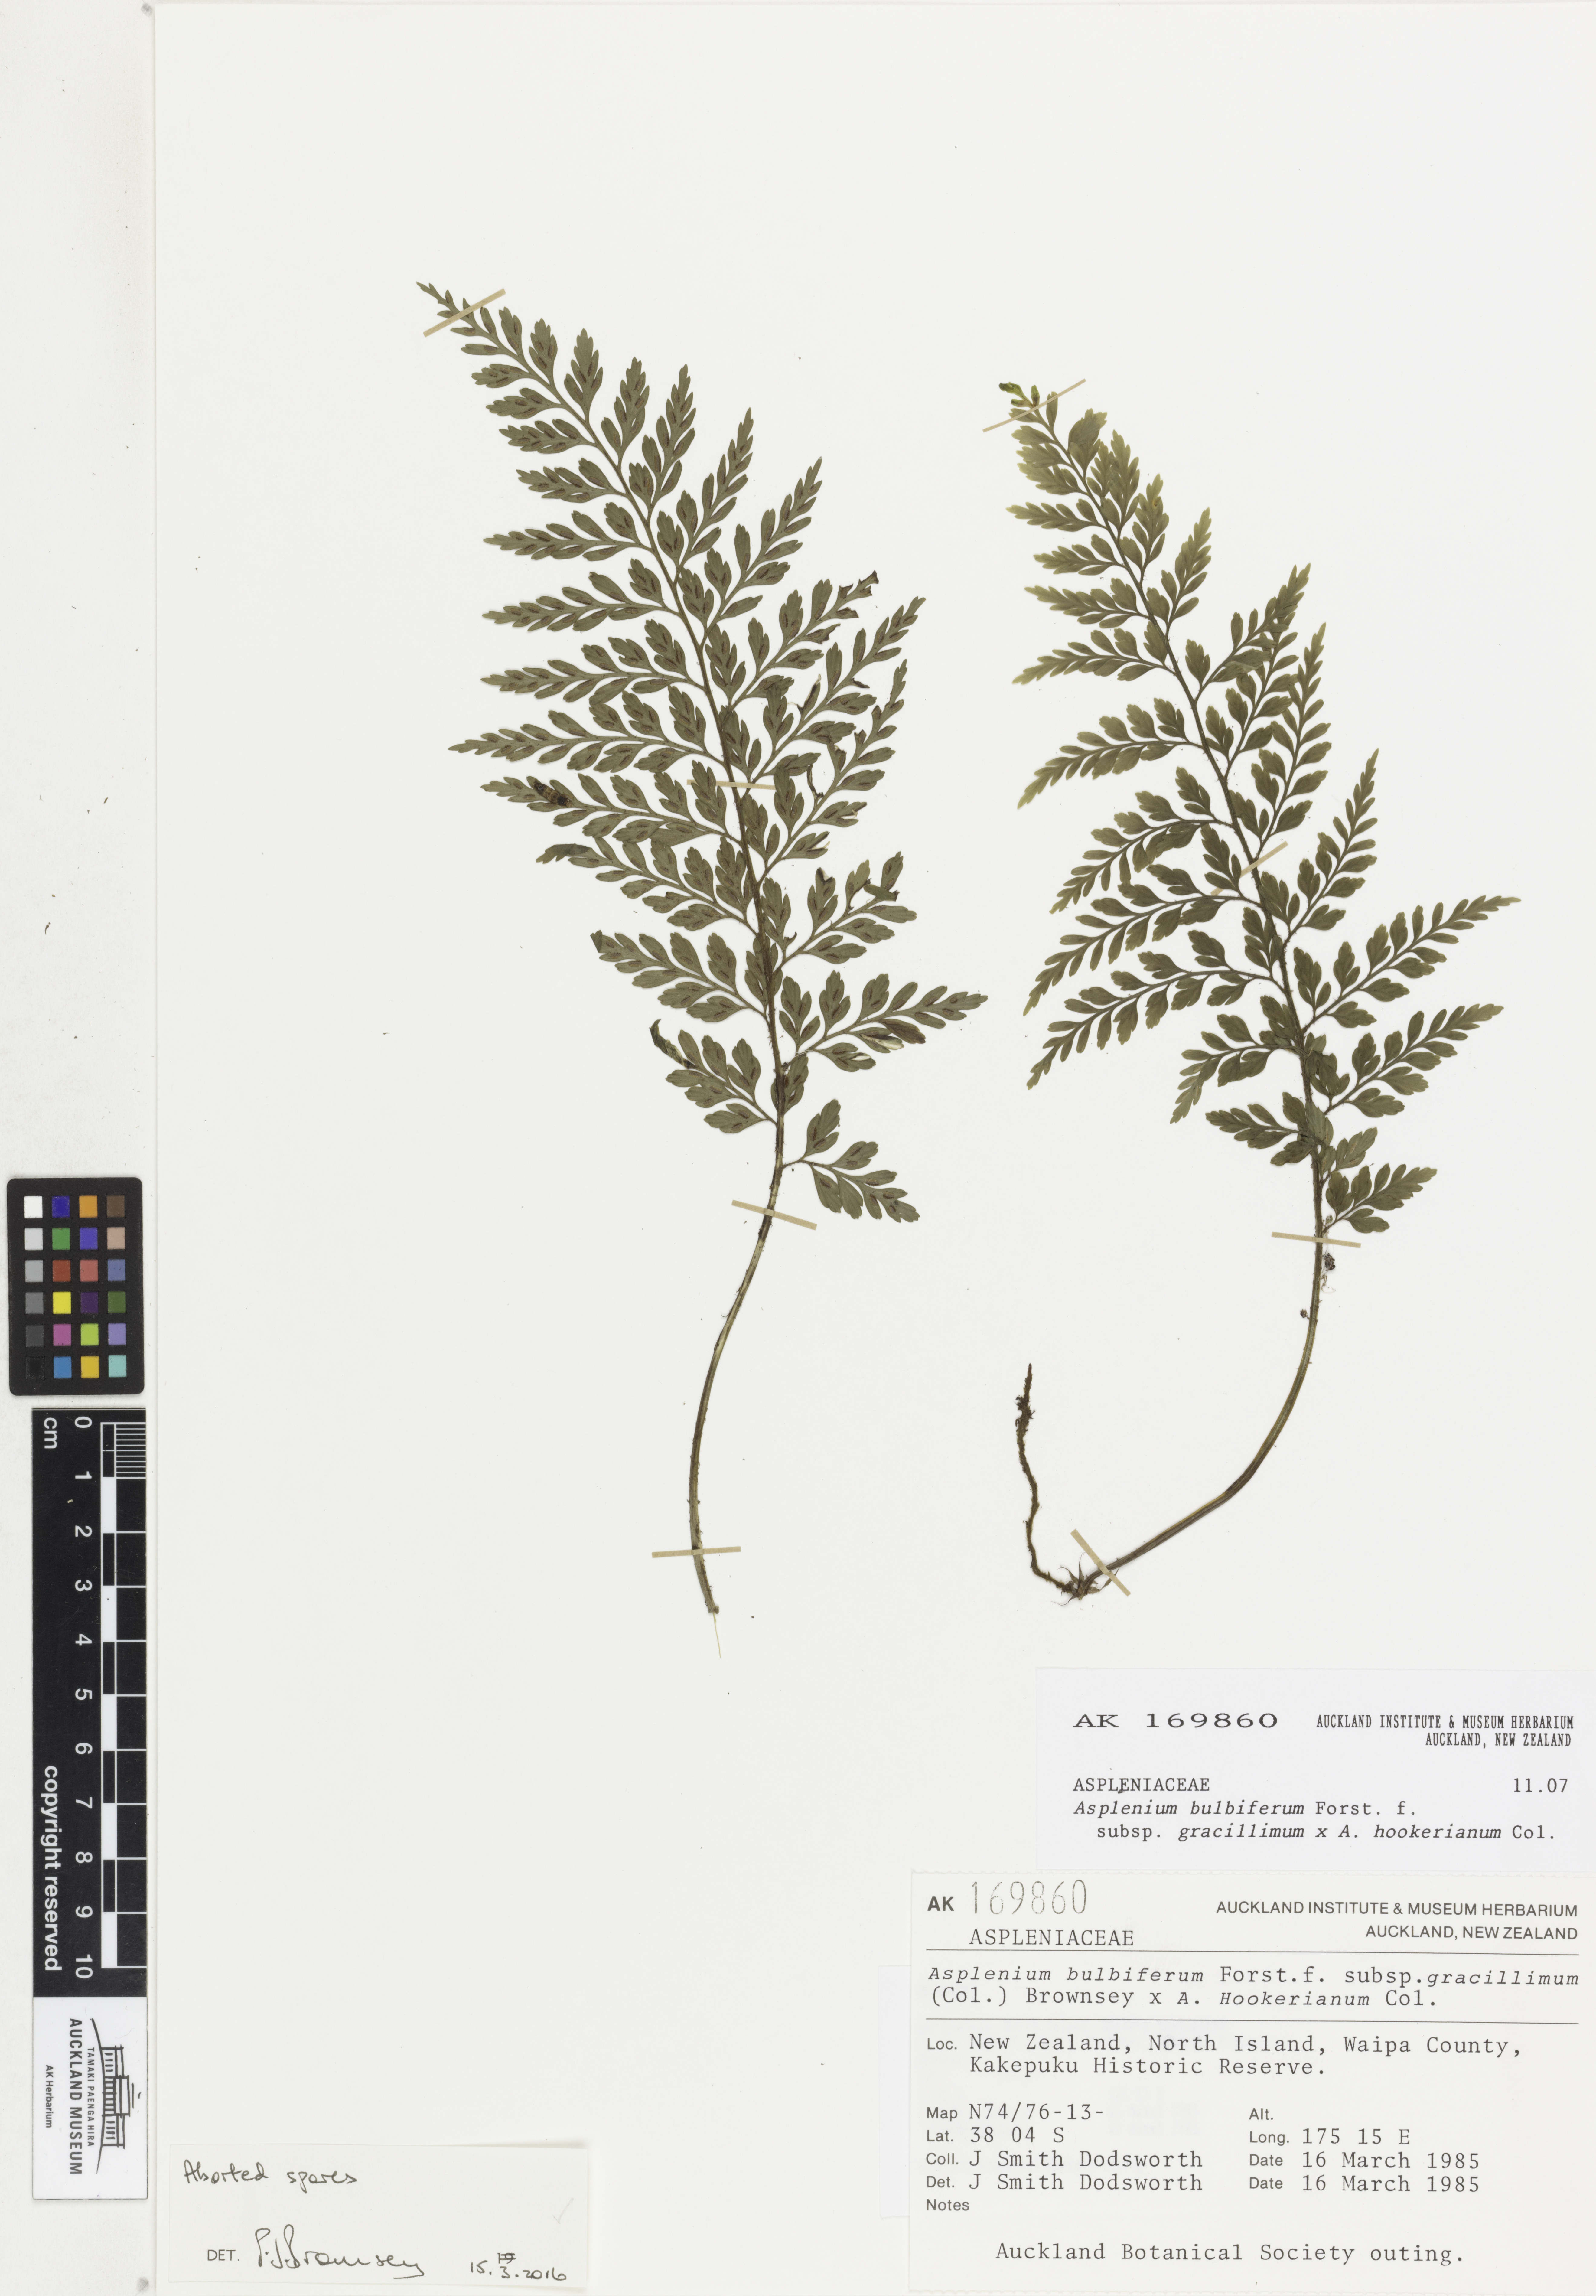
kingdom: Plantae
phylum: Tracheophyta
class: Polypodiopsida
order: Polypodiales
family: Aspleniaceae
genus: Asplenium
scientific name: Asplenium
